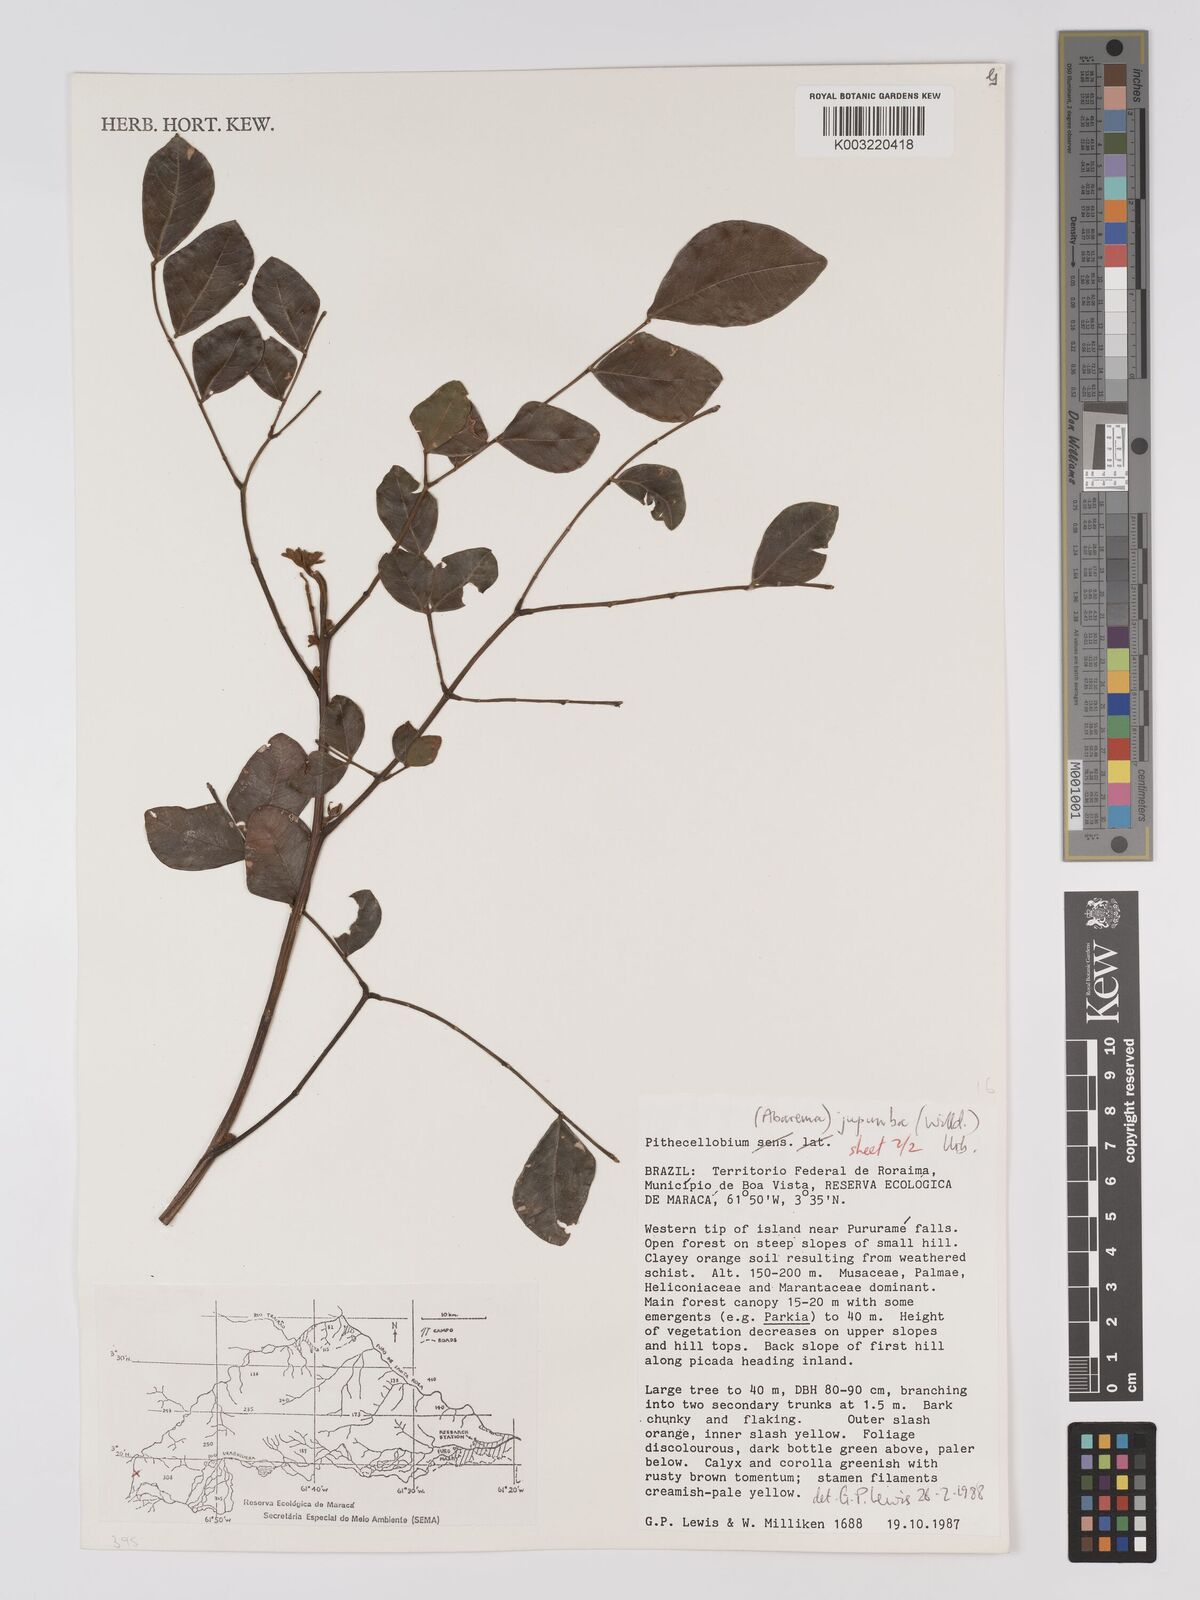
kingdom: Plantae
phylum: Tracheophyta
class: Magnoliopsida
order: Fabales
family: Fabaceae
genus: Jupunba
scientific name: Jupunba trapezifolia
